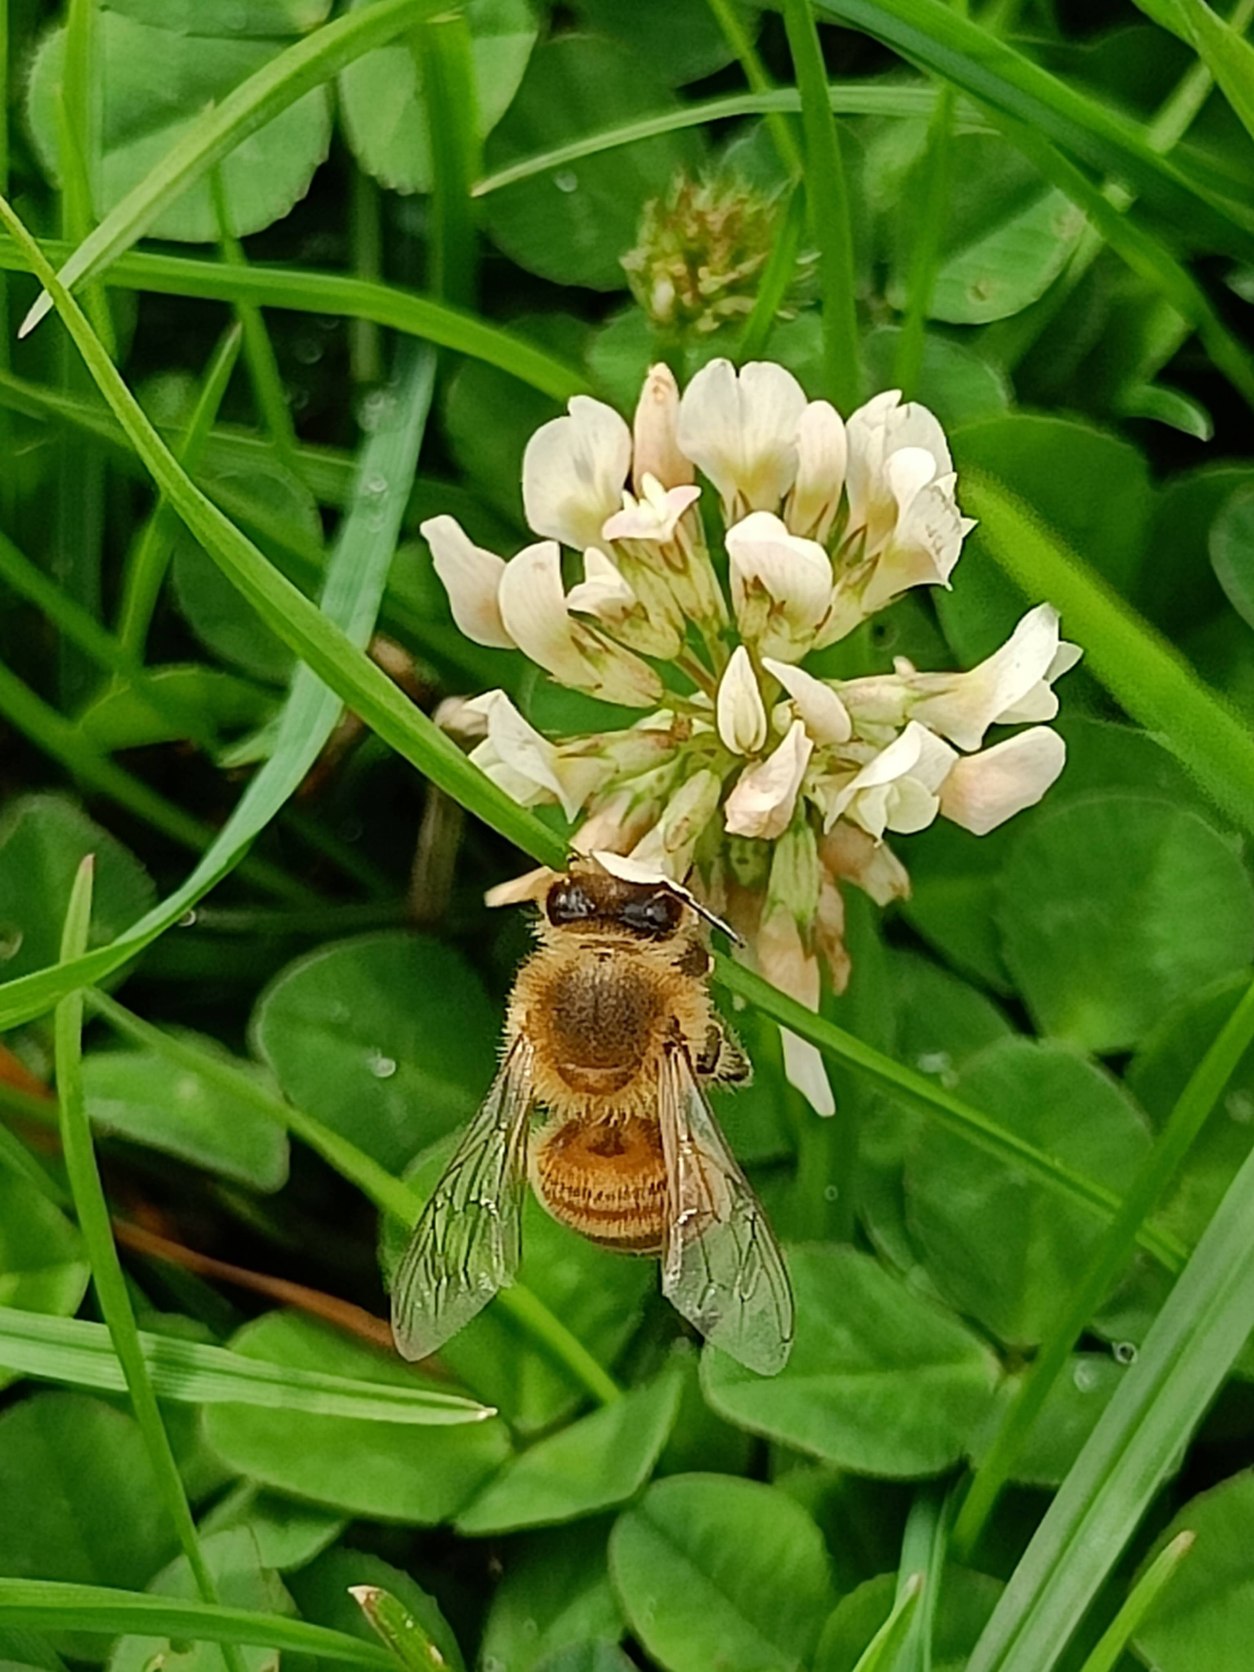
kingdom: Plantae
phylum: Tracheophyta
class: Magnoliopsida
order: Fabales
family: Fabaceae
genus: Trifolium
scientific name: Trifolium repens
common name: Hvid-kløver
